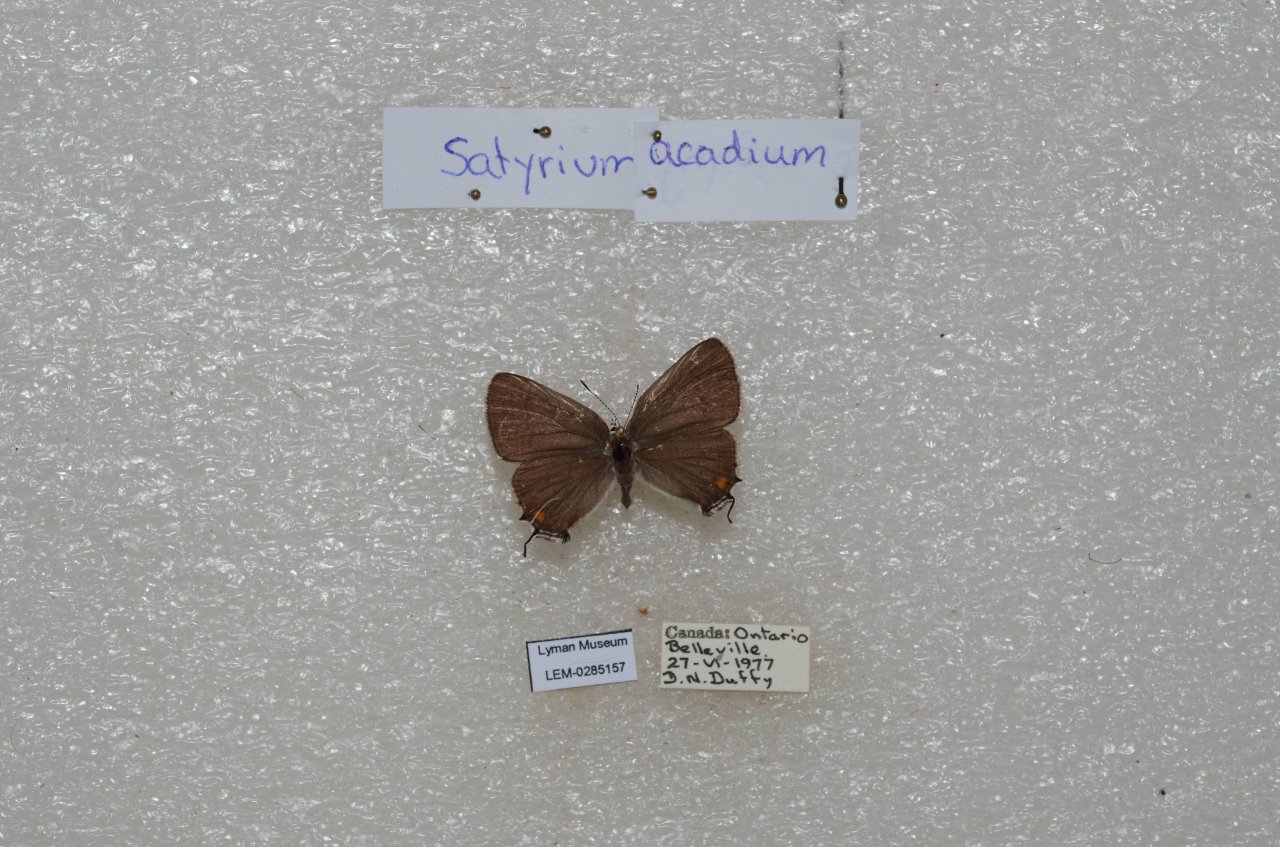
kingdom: Animalia
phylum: Arthropoda
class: Insecta
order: Lepidoptera
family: Lycaenidae
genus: Strymon
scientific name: Strymon acadica
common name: Acadian Hairstreak
